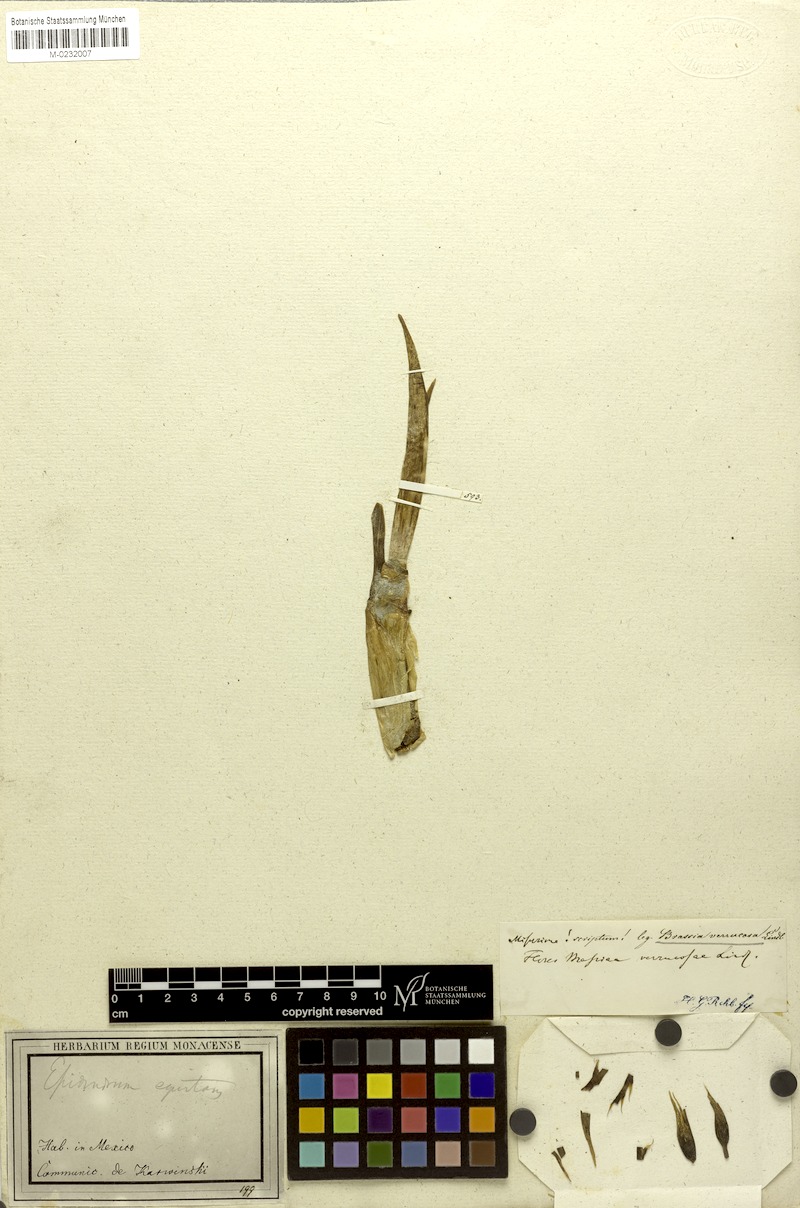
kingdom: Plantae
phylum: Tracheophyta
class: Liliopsida
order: Asparagales
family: Orchidaceae
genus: Brassia
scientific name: Brassia verrucosa
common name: Warty brassia
